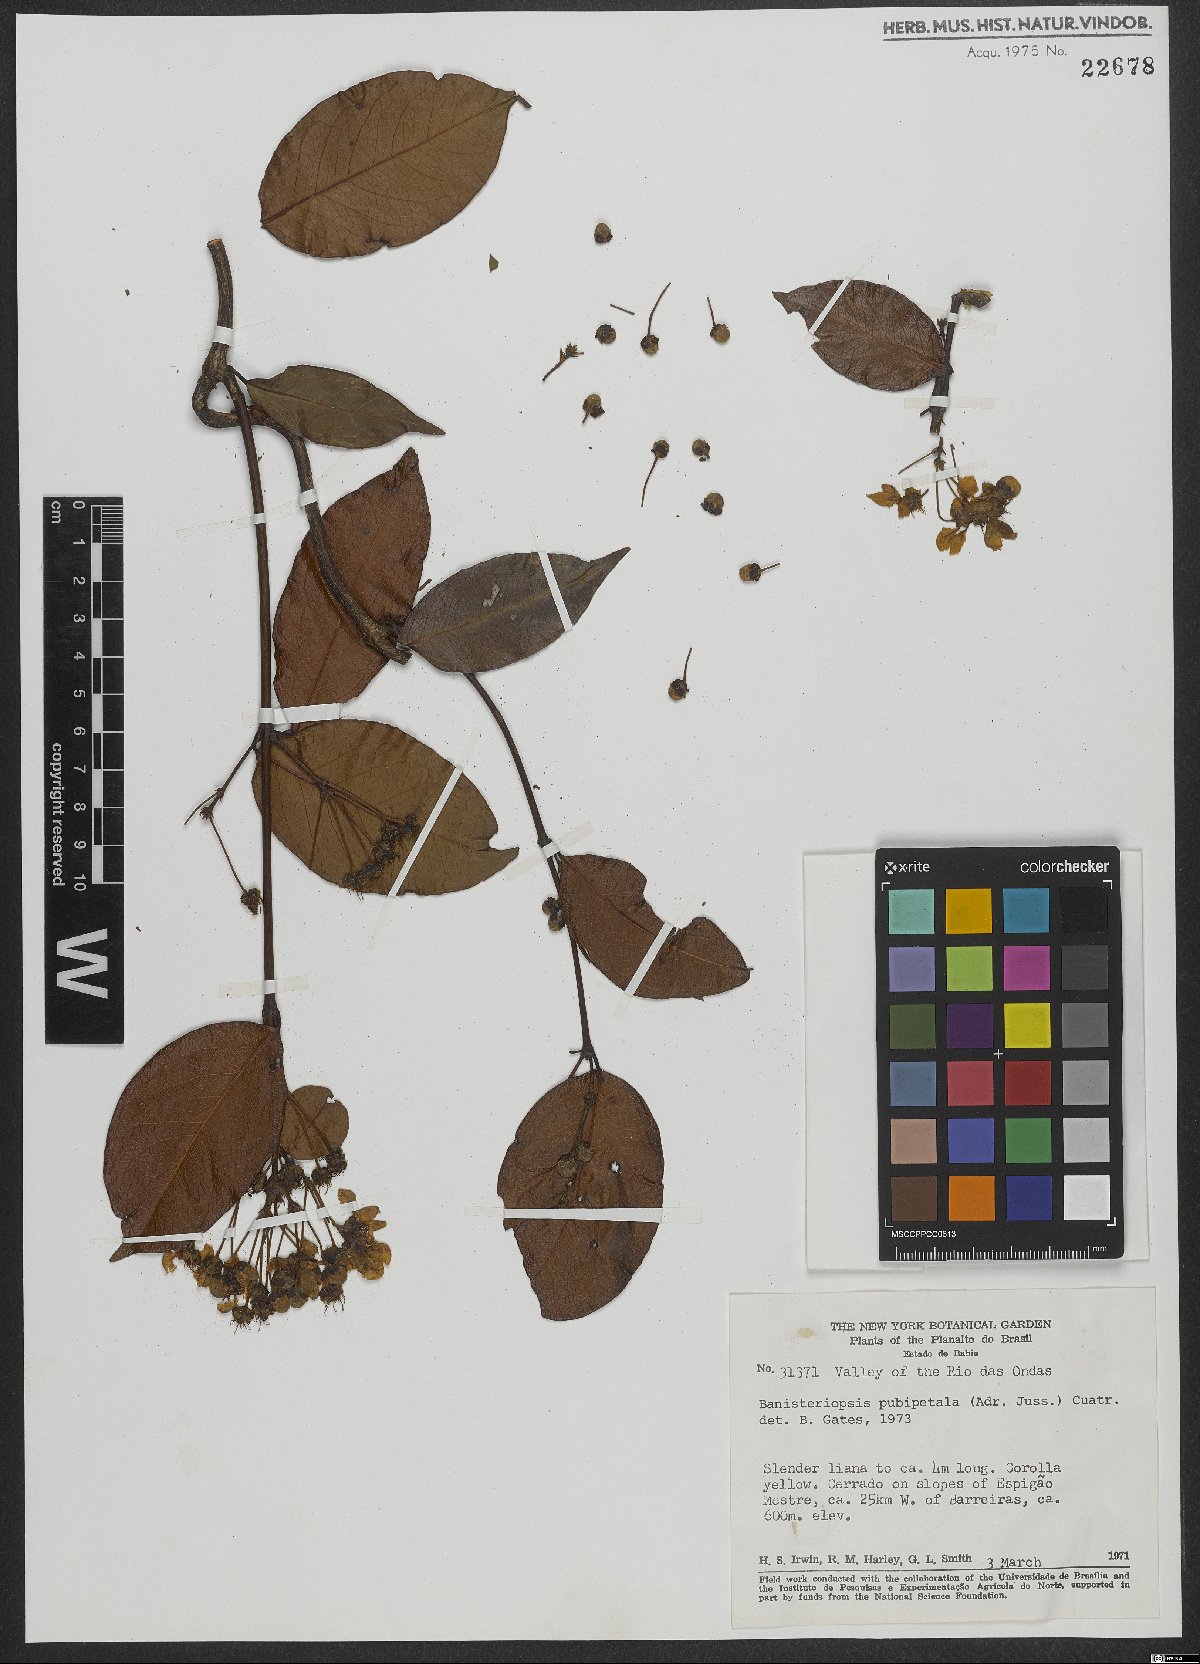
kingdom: Plantae
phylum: Tracheophyta
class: Magnoliopsida
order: Malpighiales
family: Malpighiaceae
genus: Diplopterys
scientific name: Diplopterys pubipetala
